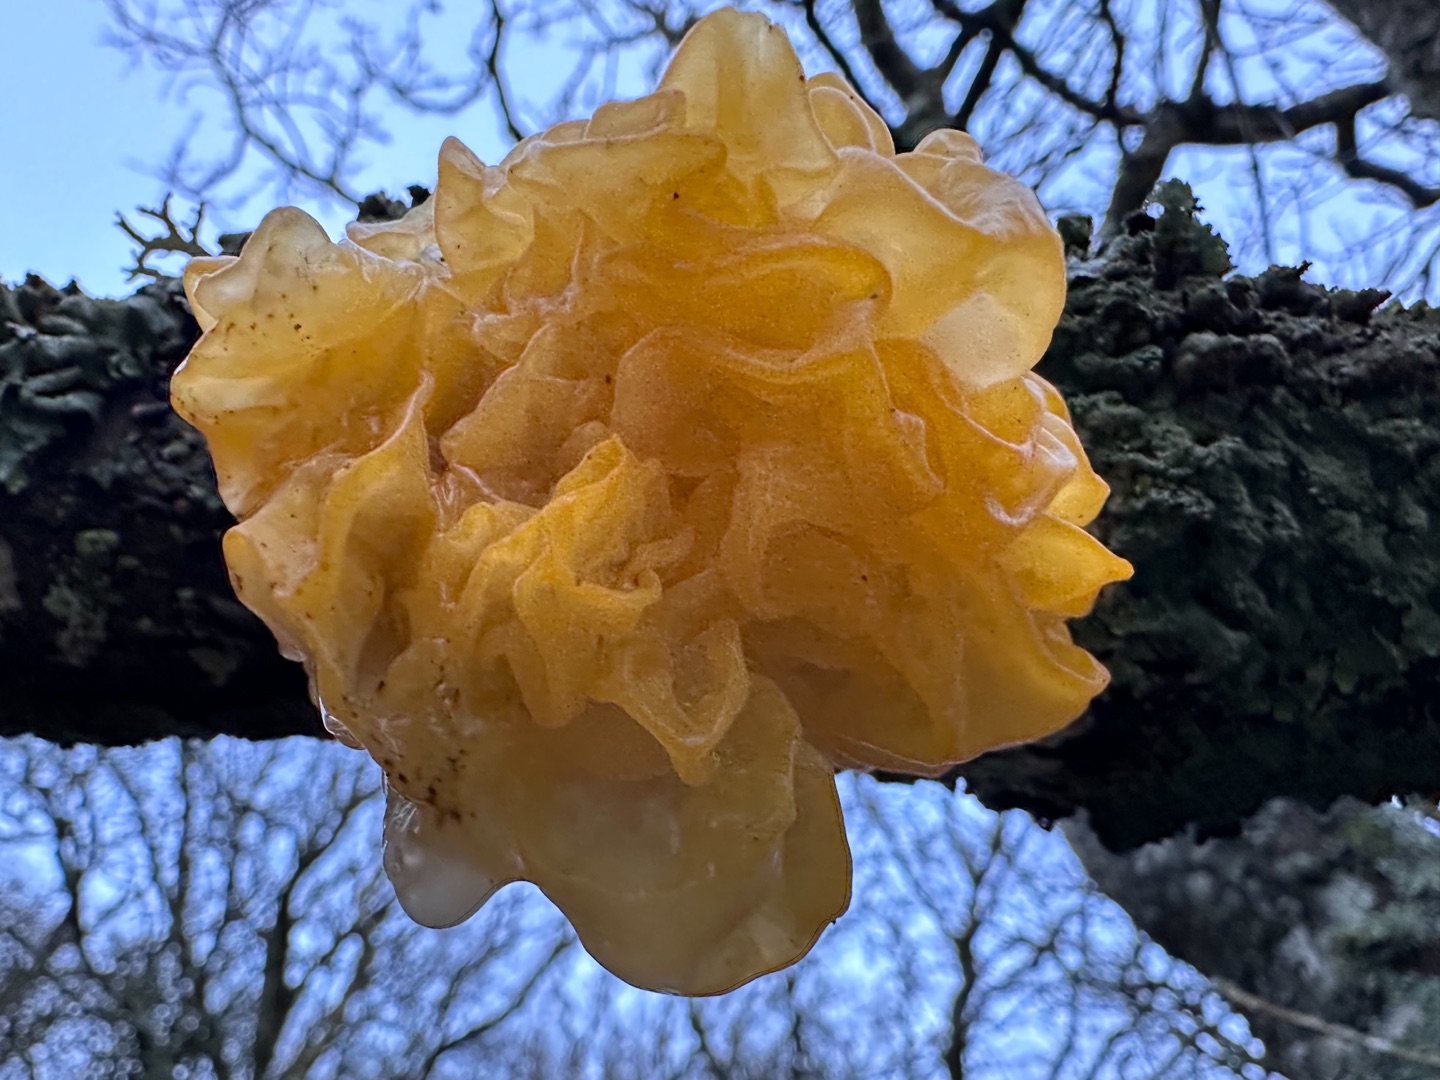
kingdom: Fungi
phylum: Basidiomycota
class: Tremellomycetes
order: Tremellales
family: Tremellaceae
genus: Tremella
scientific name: Tremella mesenterica
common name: Gul bævresvamp
